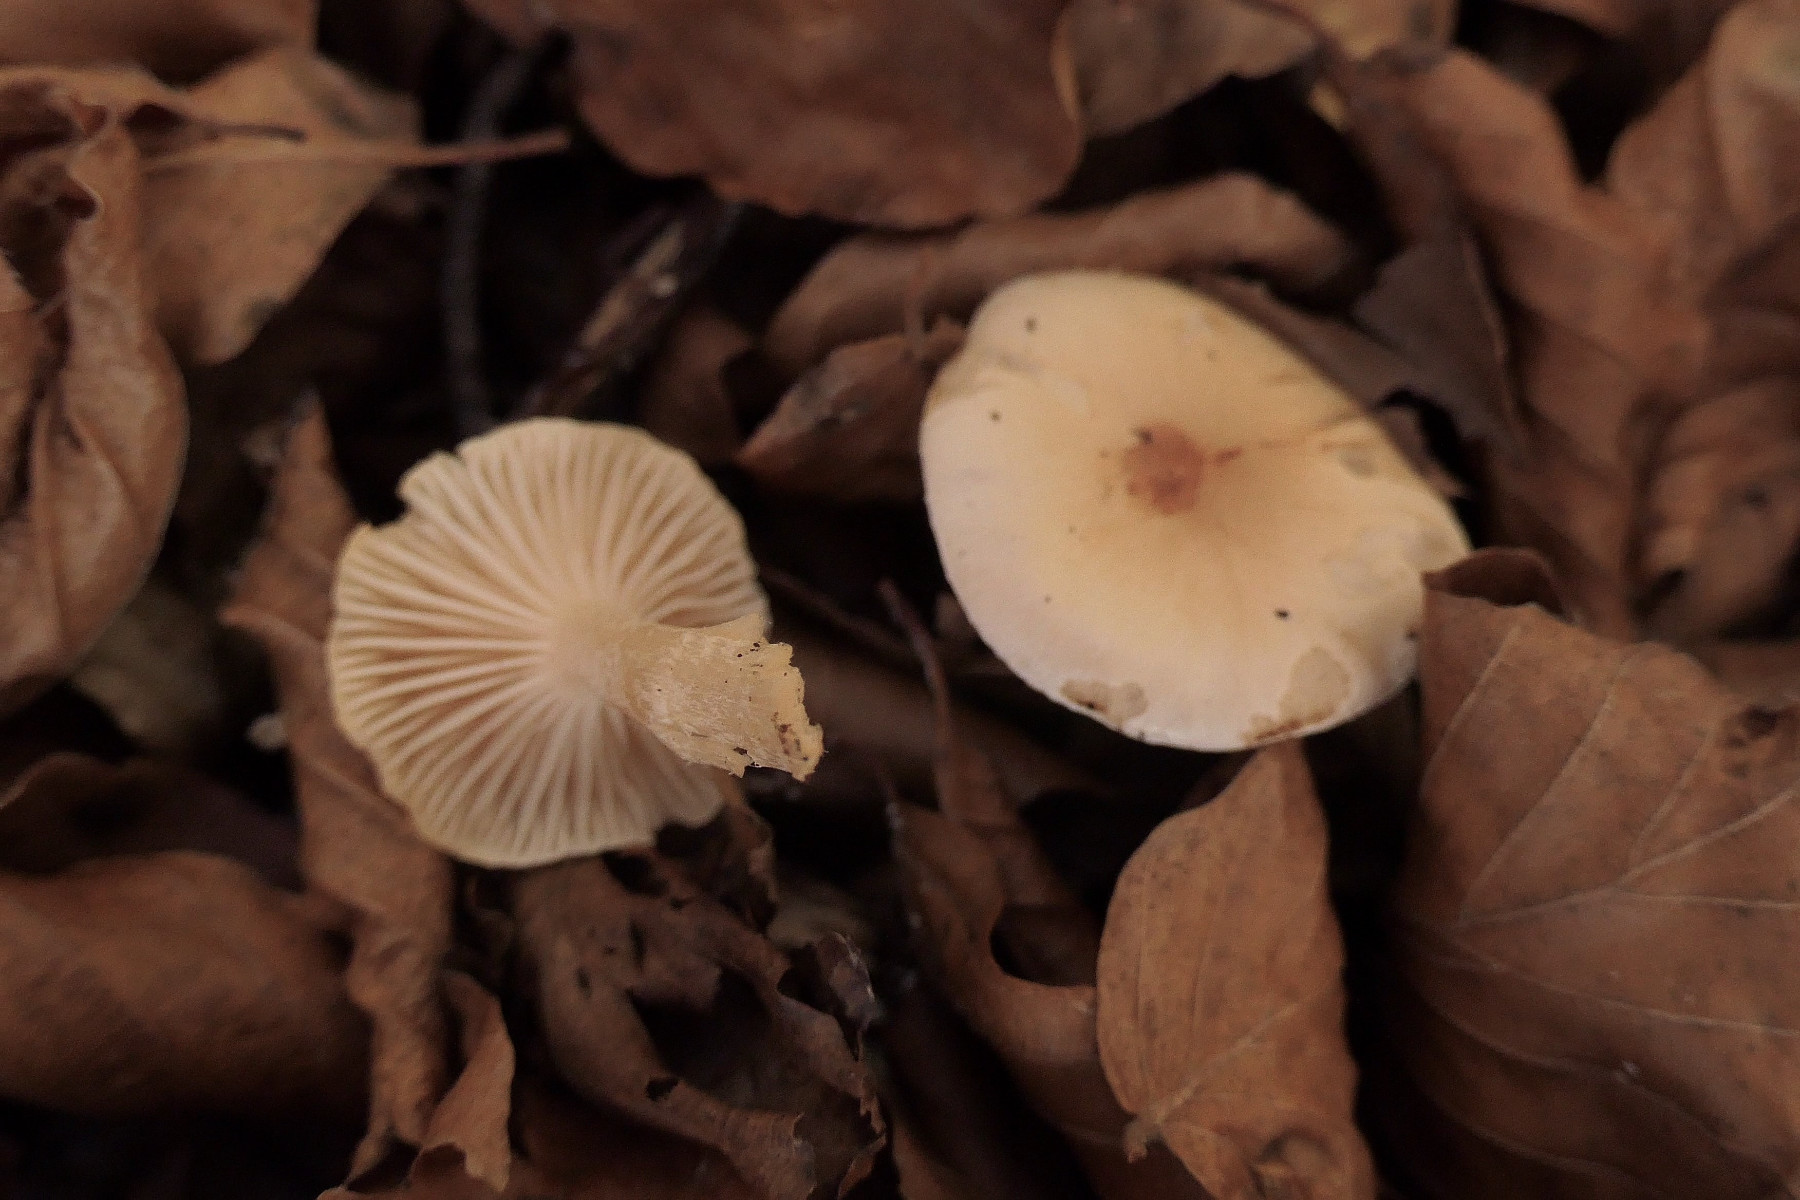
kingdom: Fungi
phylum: Basidiomycota
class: Agaricomycetes
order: Agaricales
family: Hygrophoraceae
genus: Hygrophorus
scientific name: Hygrophorus unicolor
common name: orangeøjet sneglehat
